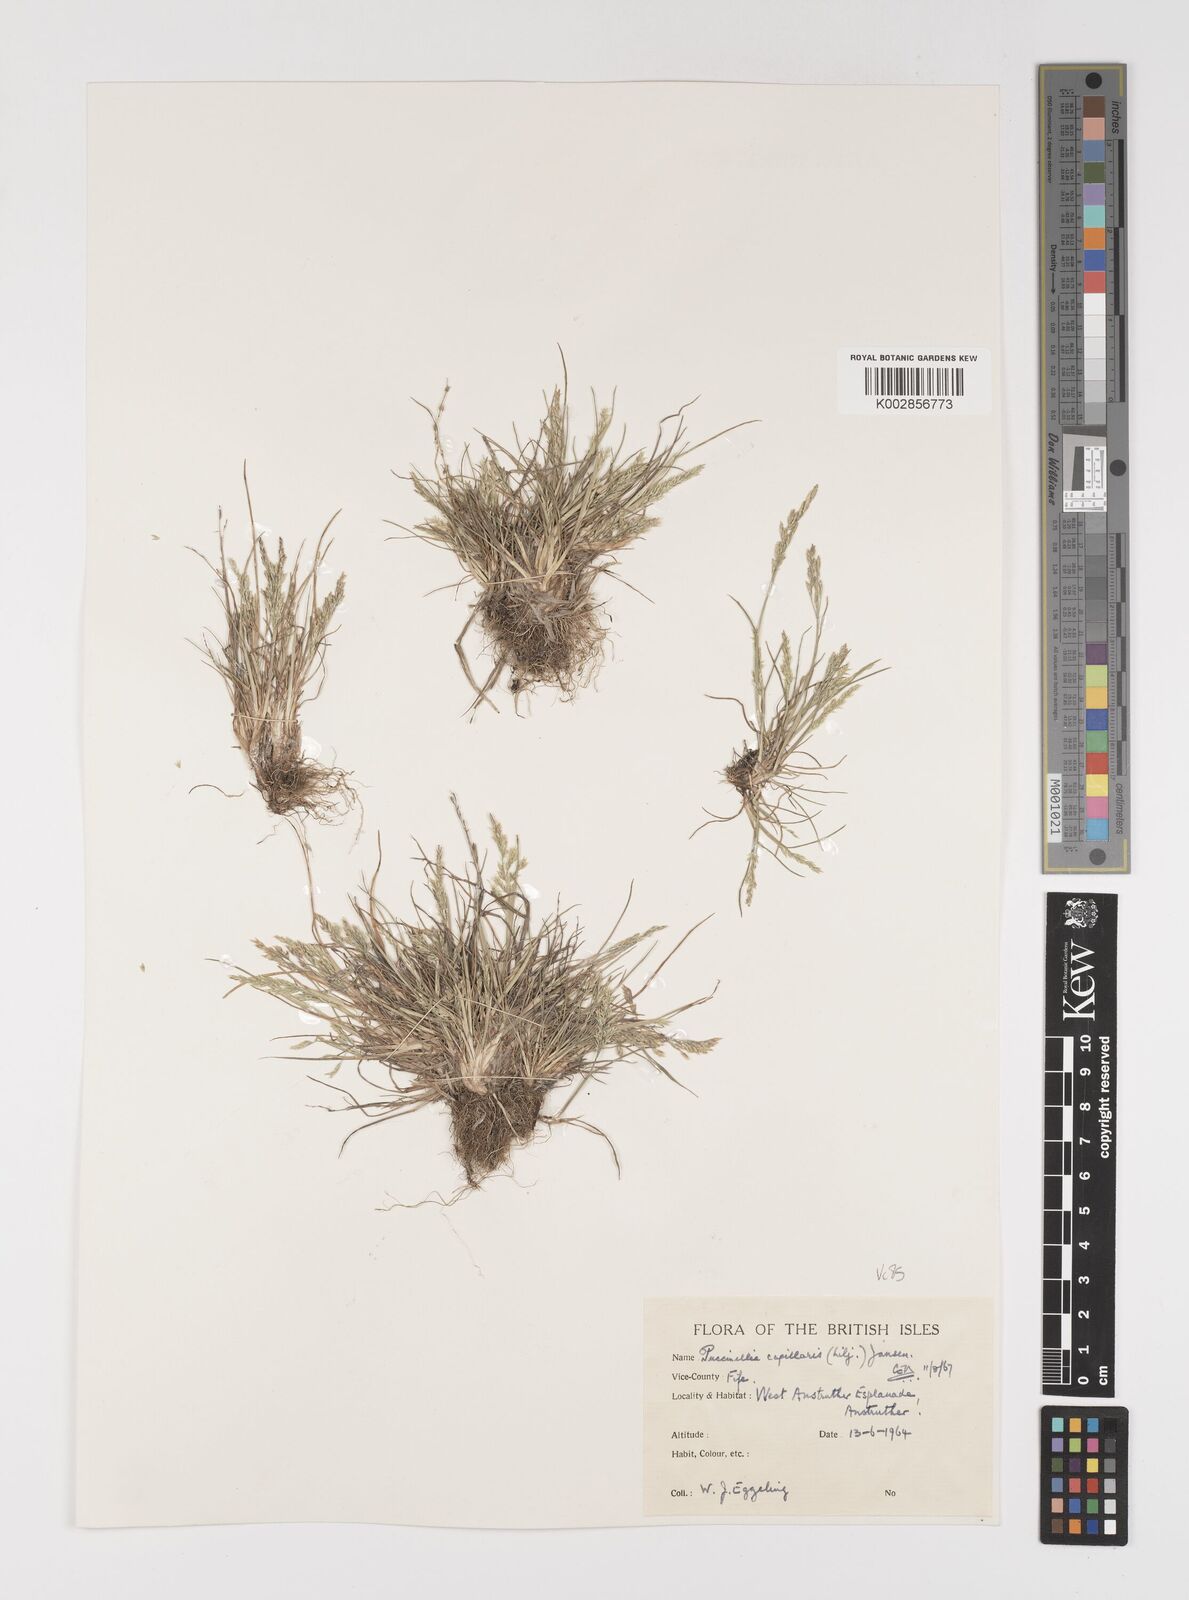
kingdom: Plantae
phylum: Tracheophyta
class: Liliopsida
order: Poales
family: Poaceae
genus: Puccinellia
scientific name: Puccinellia distans
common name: Weeping alkaligrass
